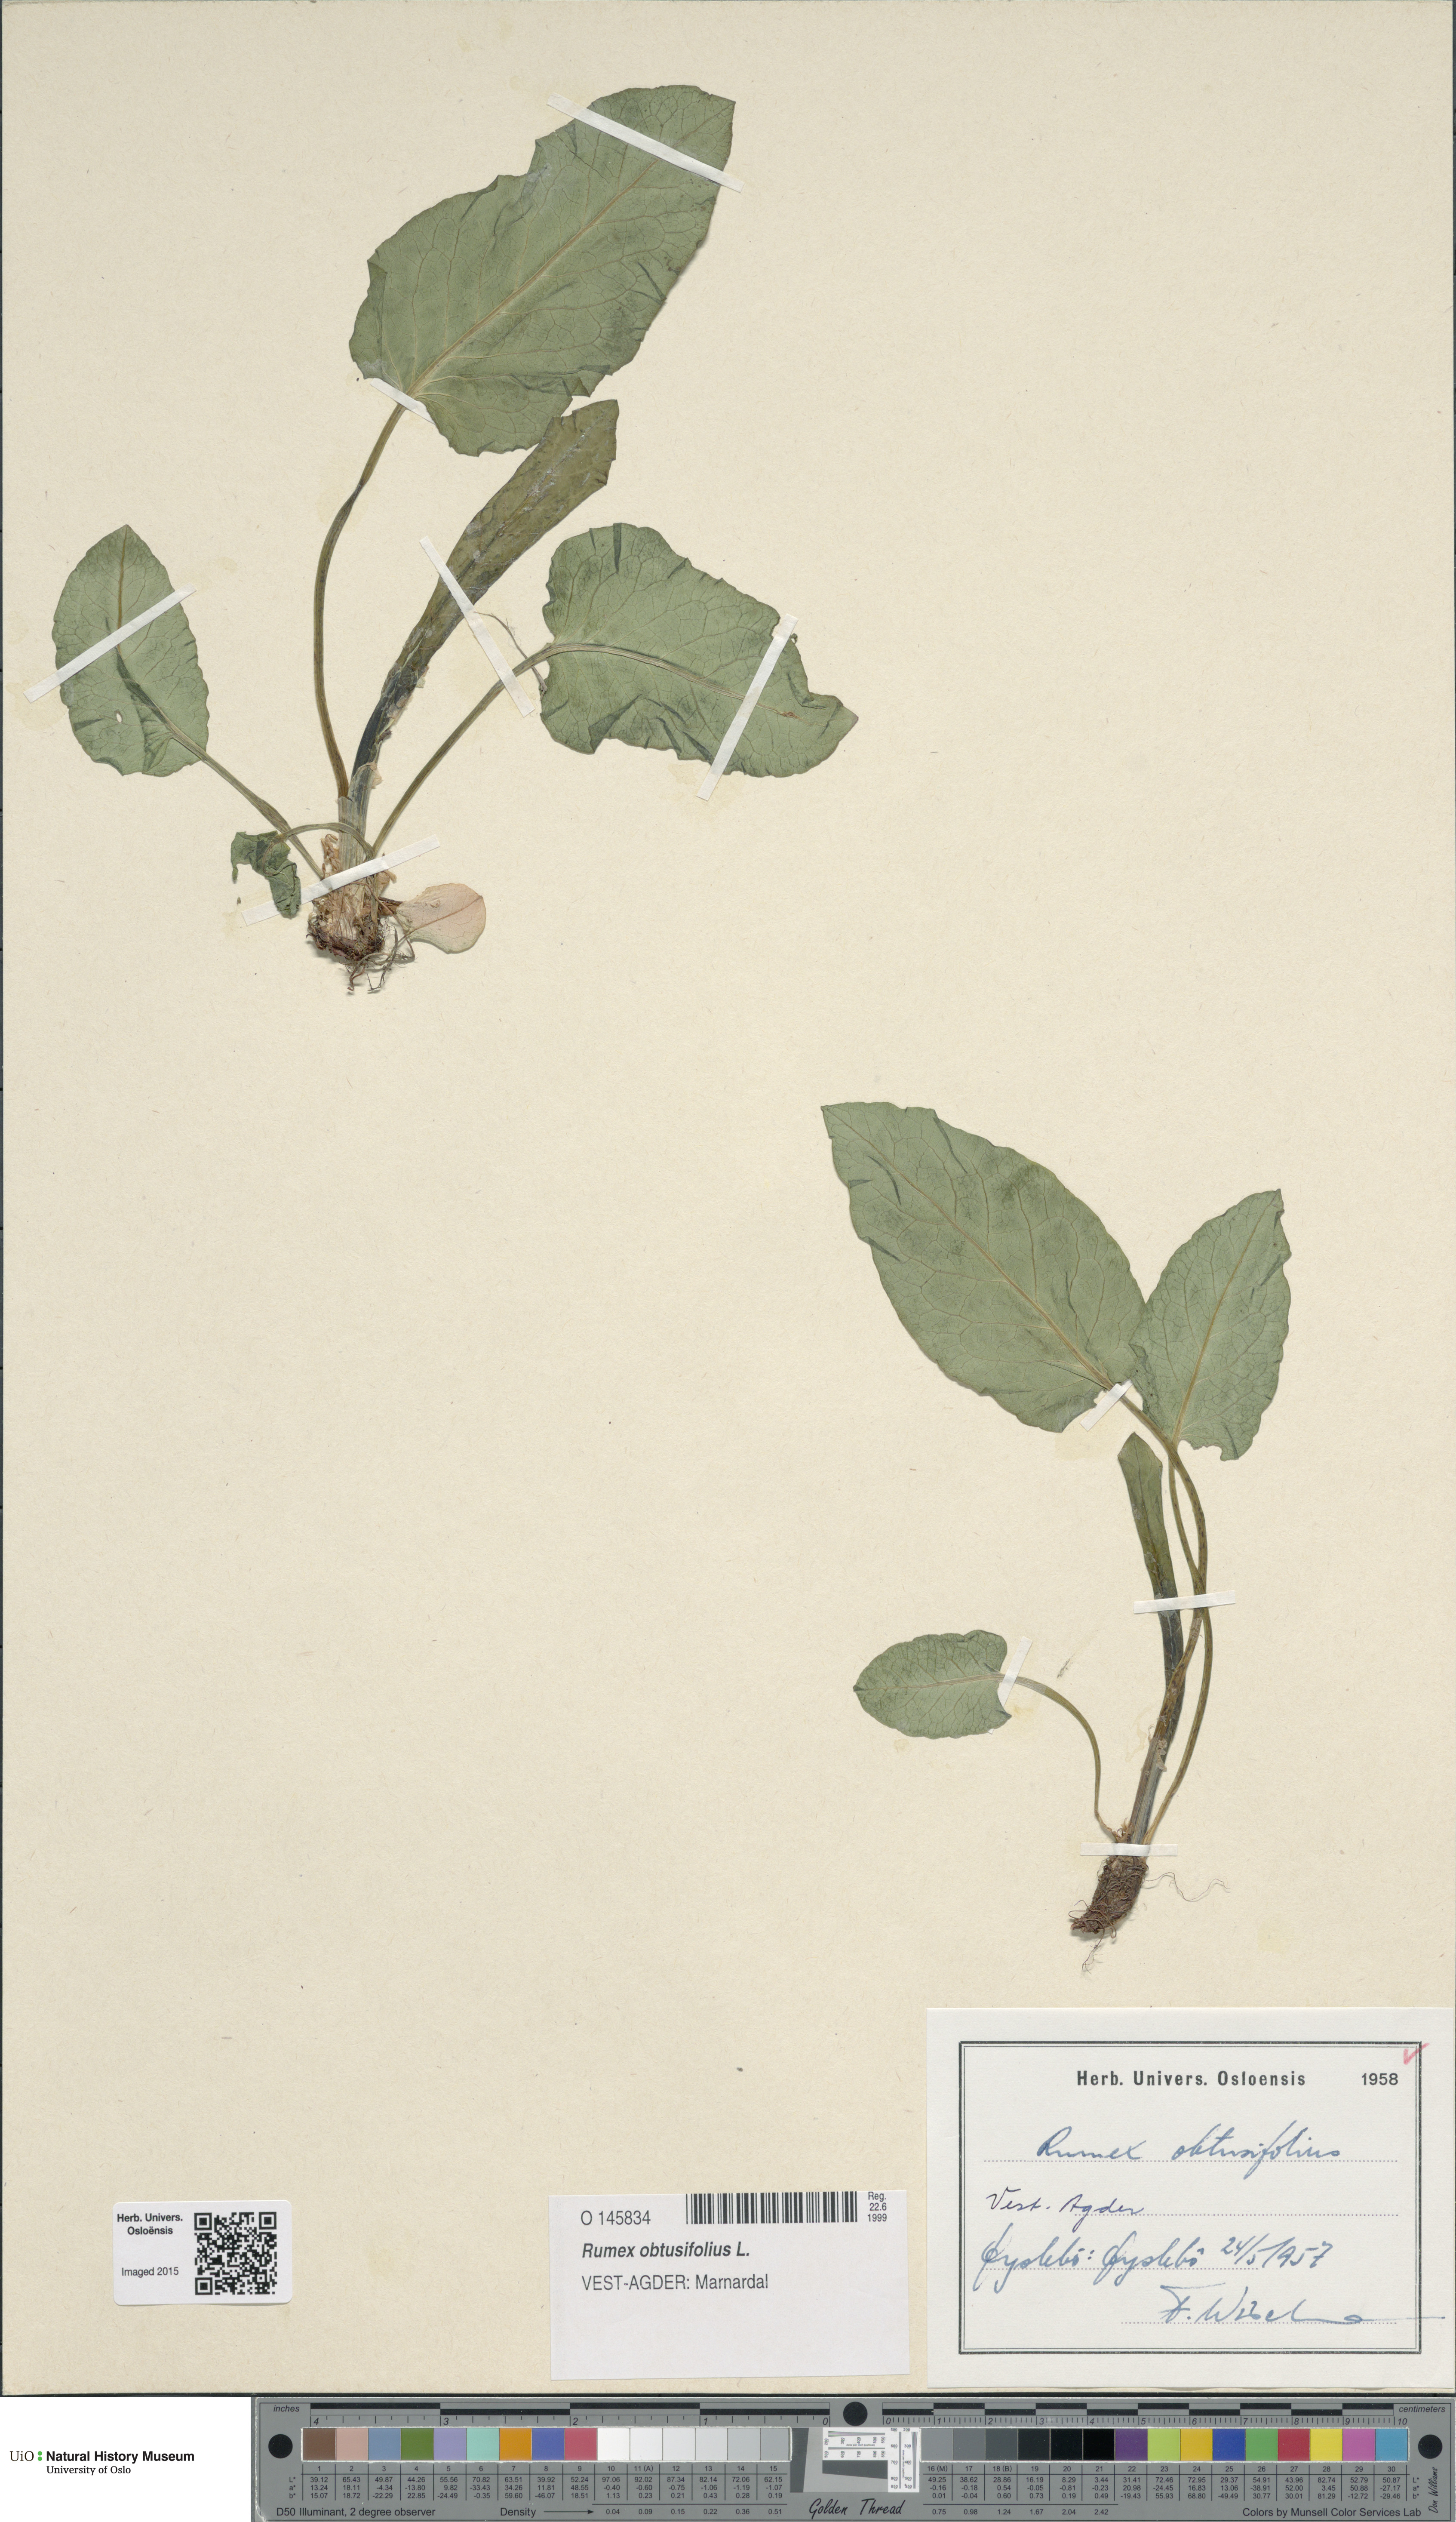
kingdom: Plantae
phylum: Tracheophyta
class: Magnoliopsida
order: Caryophyllales
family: Polygonaceae
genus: Rumex
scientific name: Rumex obtusifolius
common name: Bitter dock
